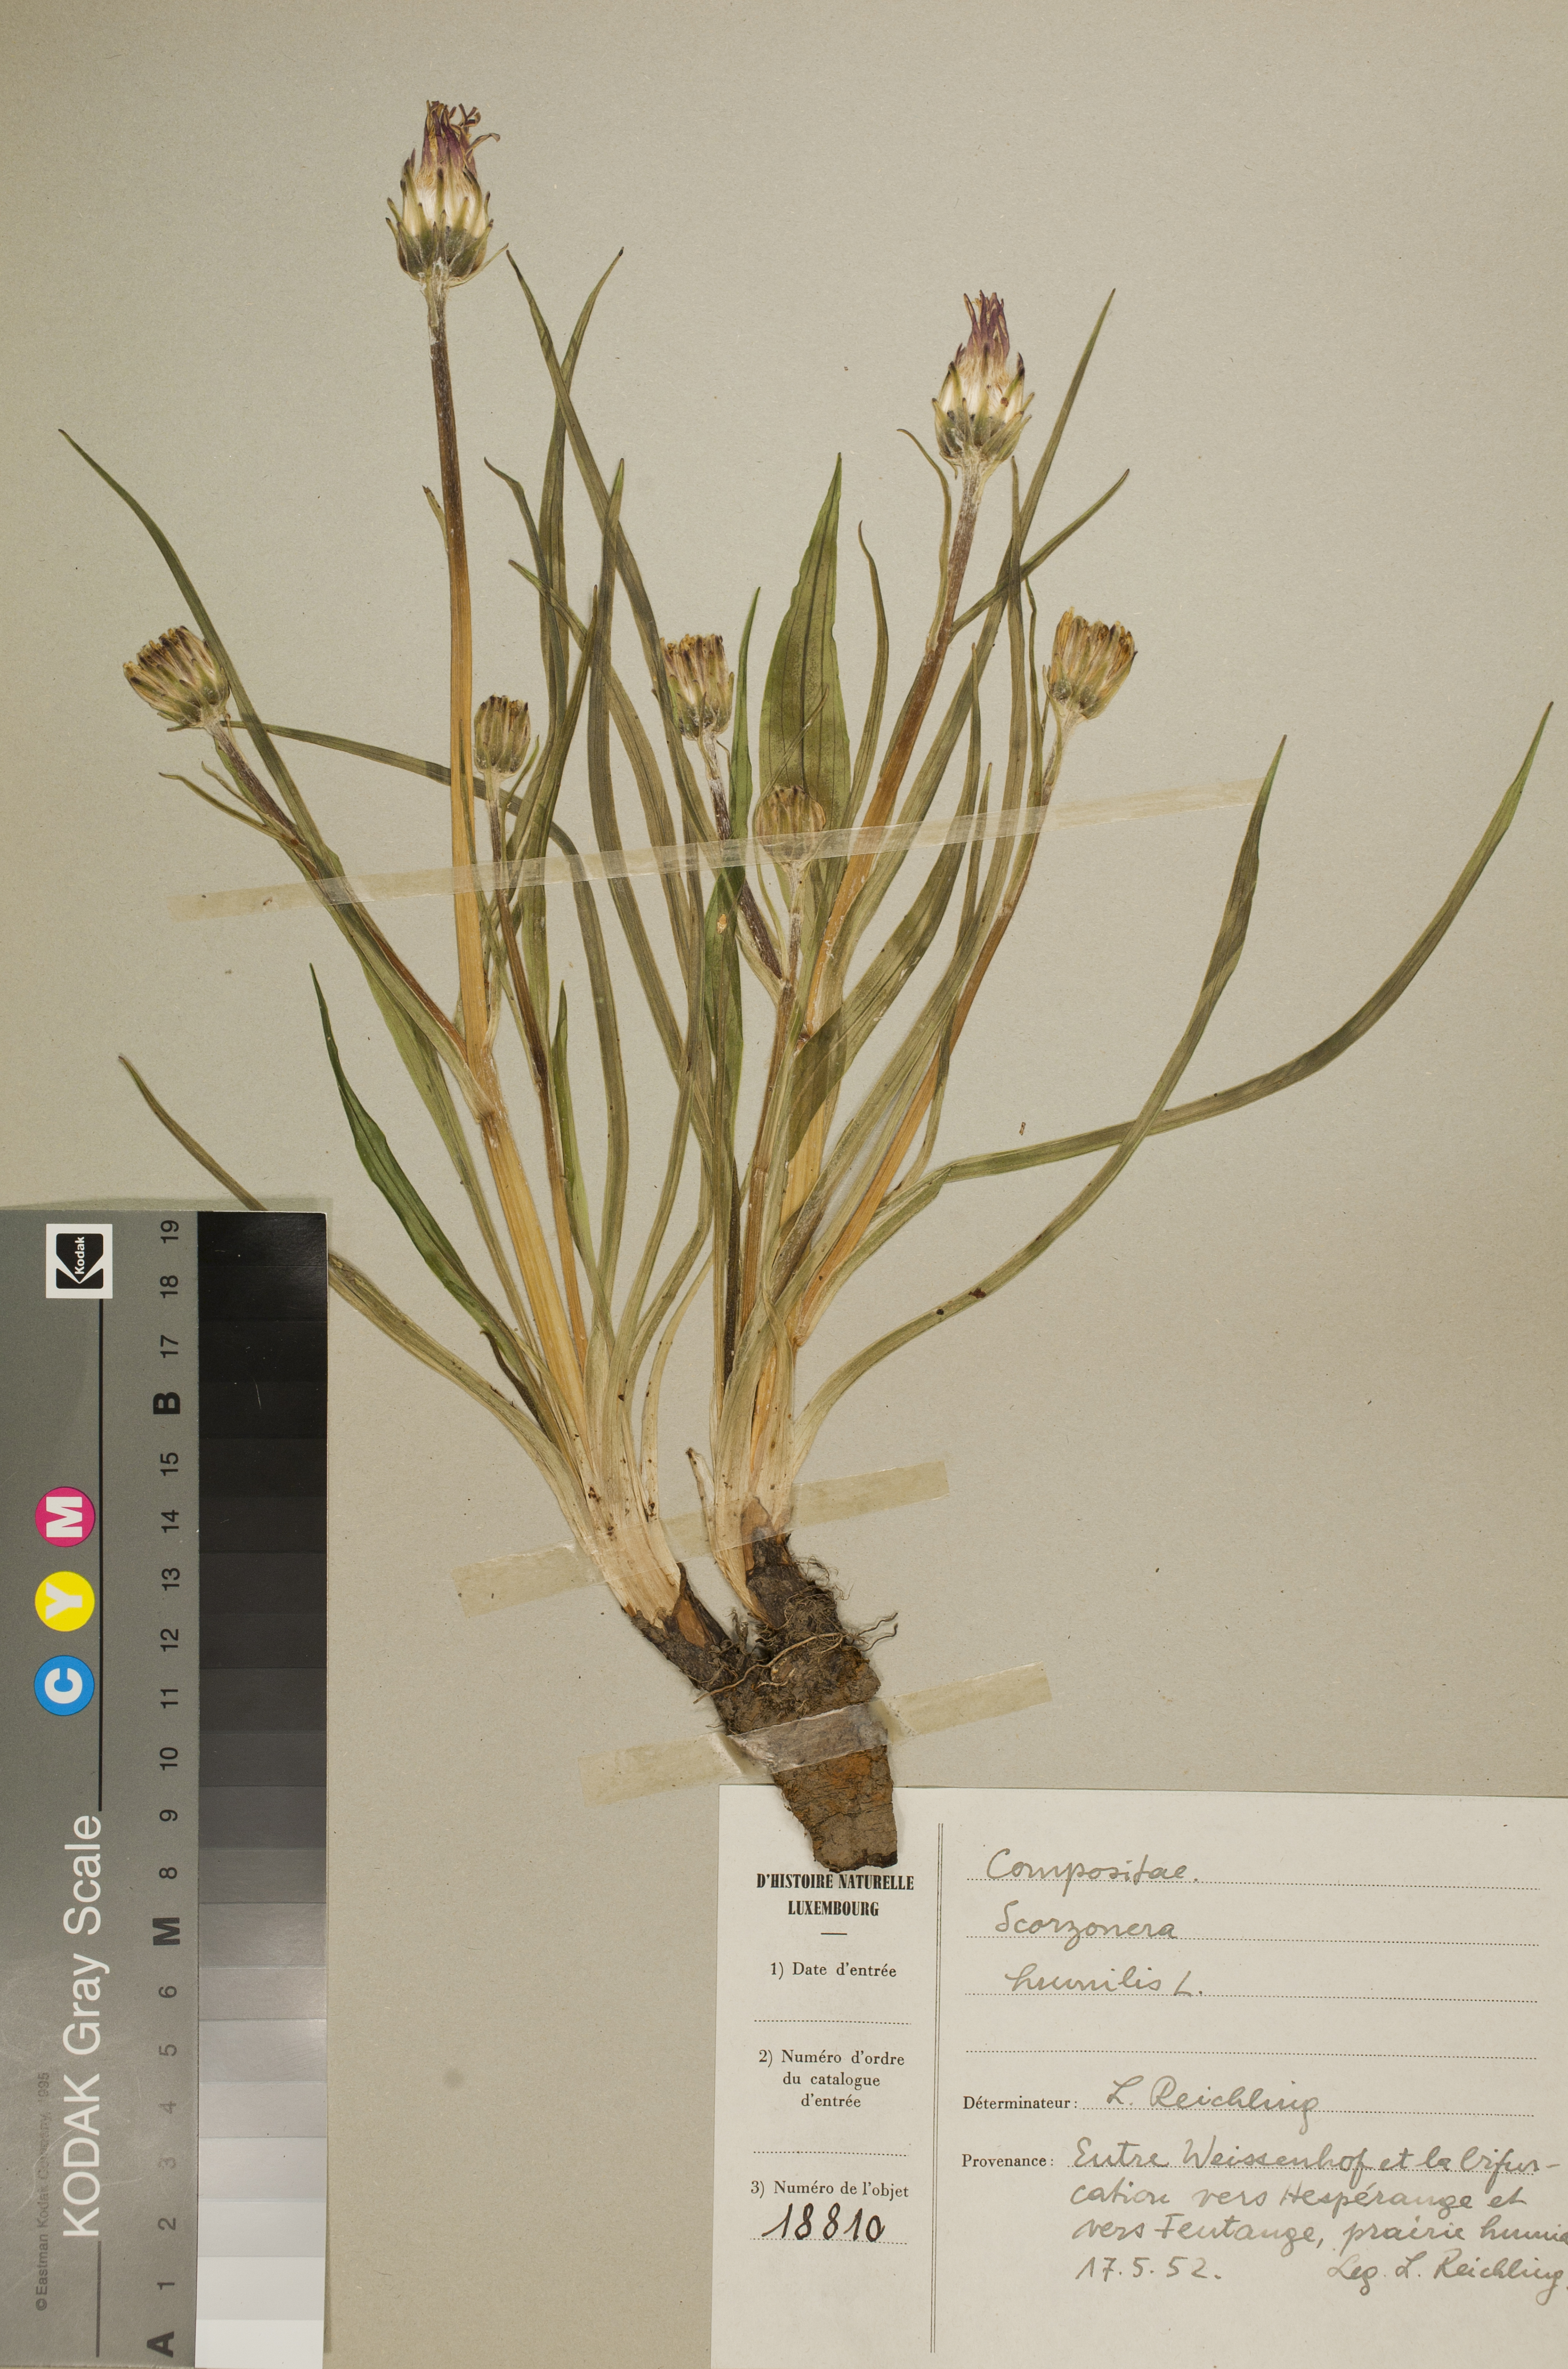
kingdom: Plantae
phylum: Tracheophyta
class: Magnoliopsida
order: Asterales
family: Asteraceae
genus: Scorzonera
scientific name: Scorzonera humilis
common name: Viper's-grass
